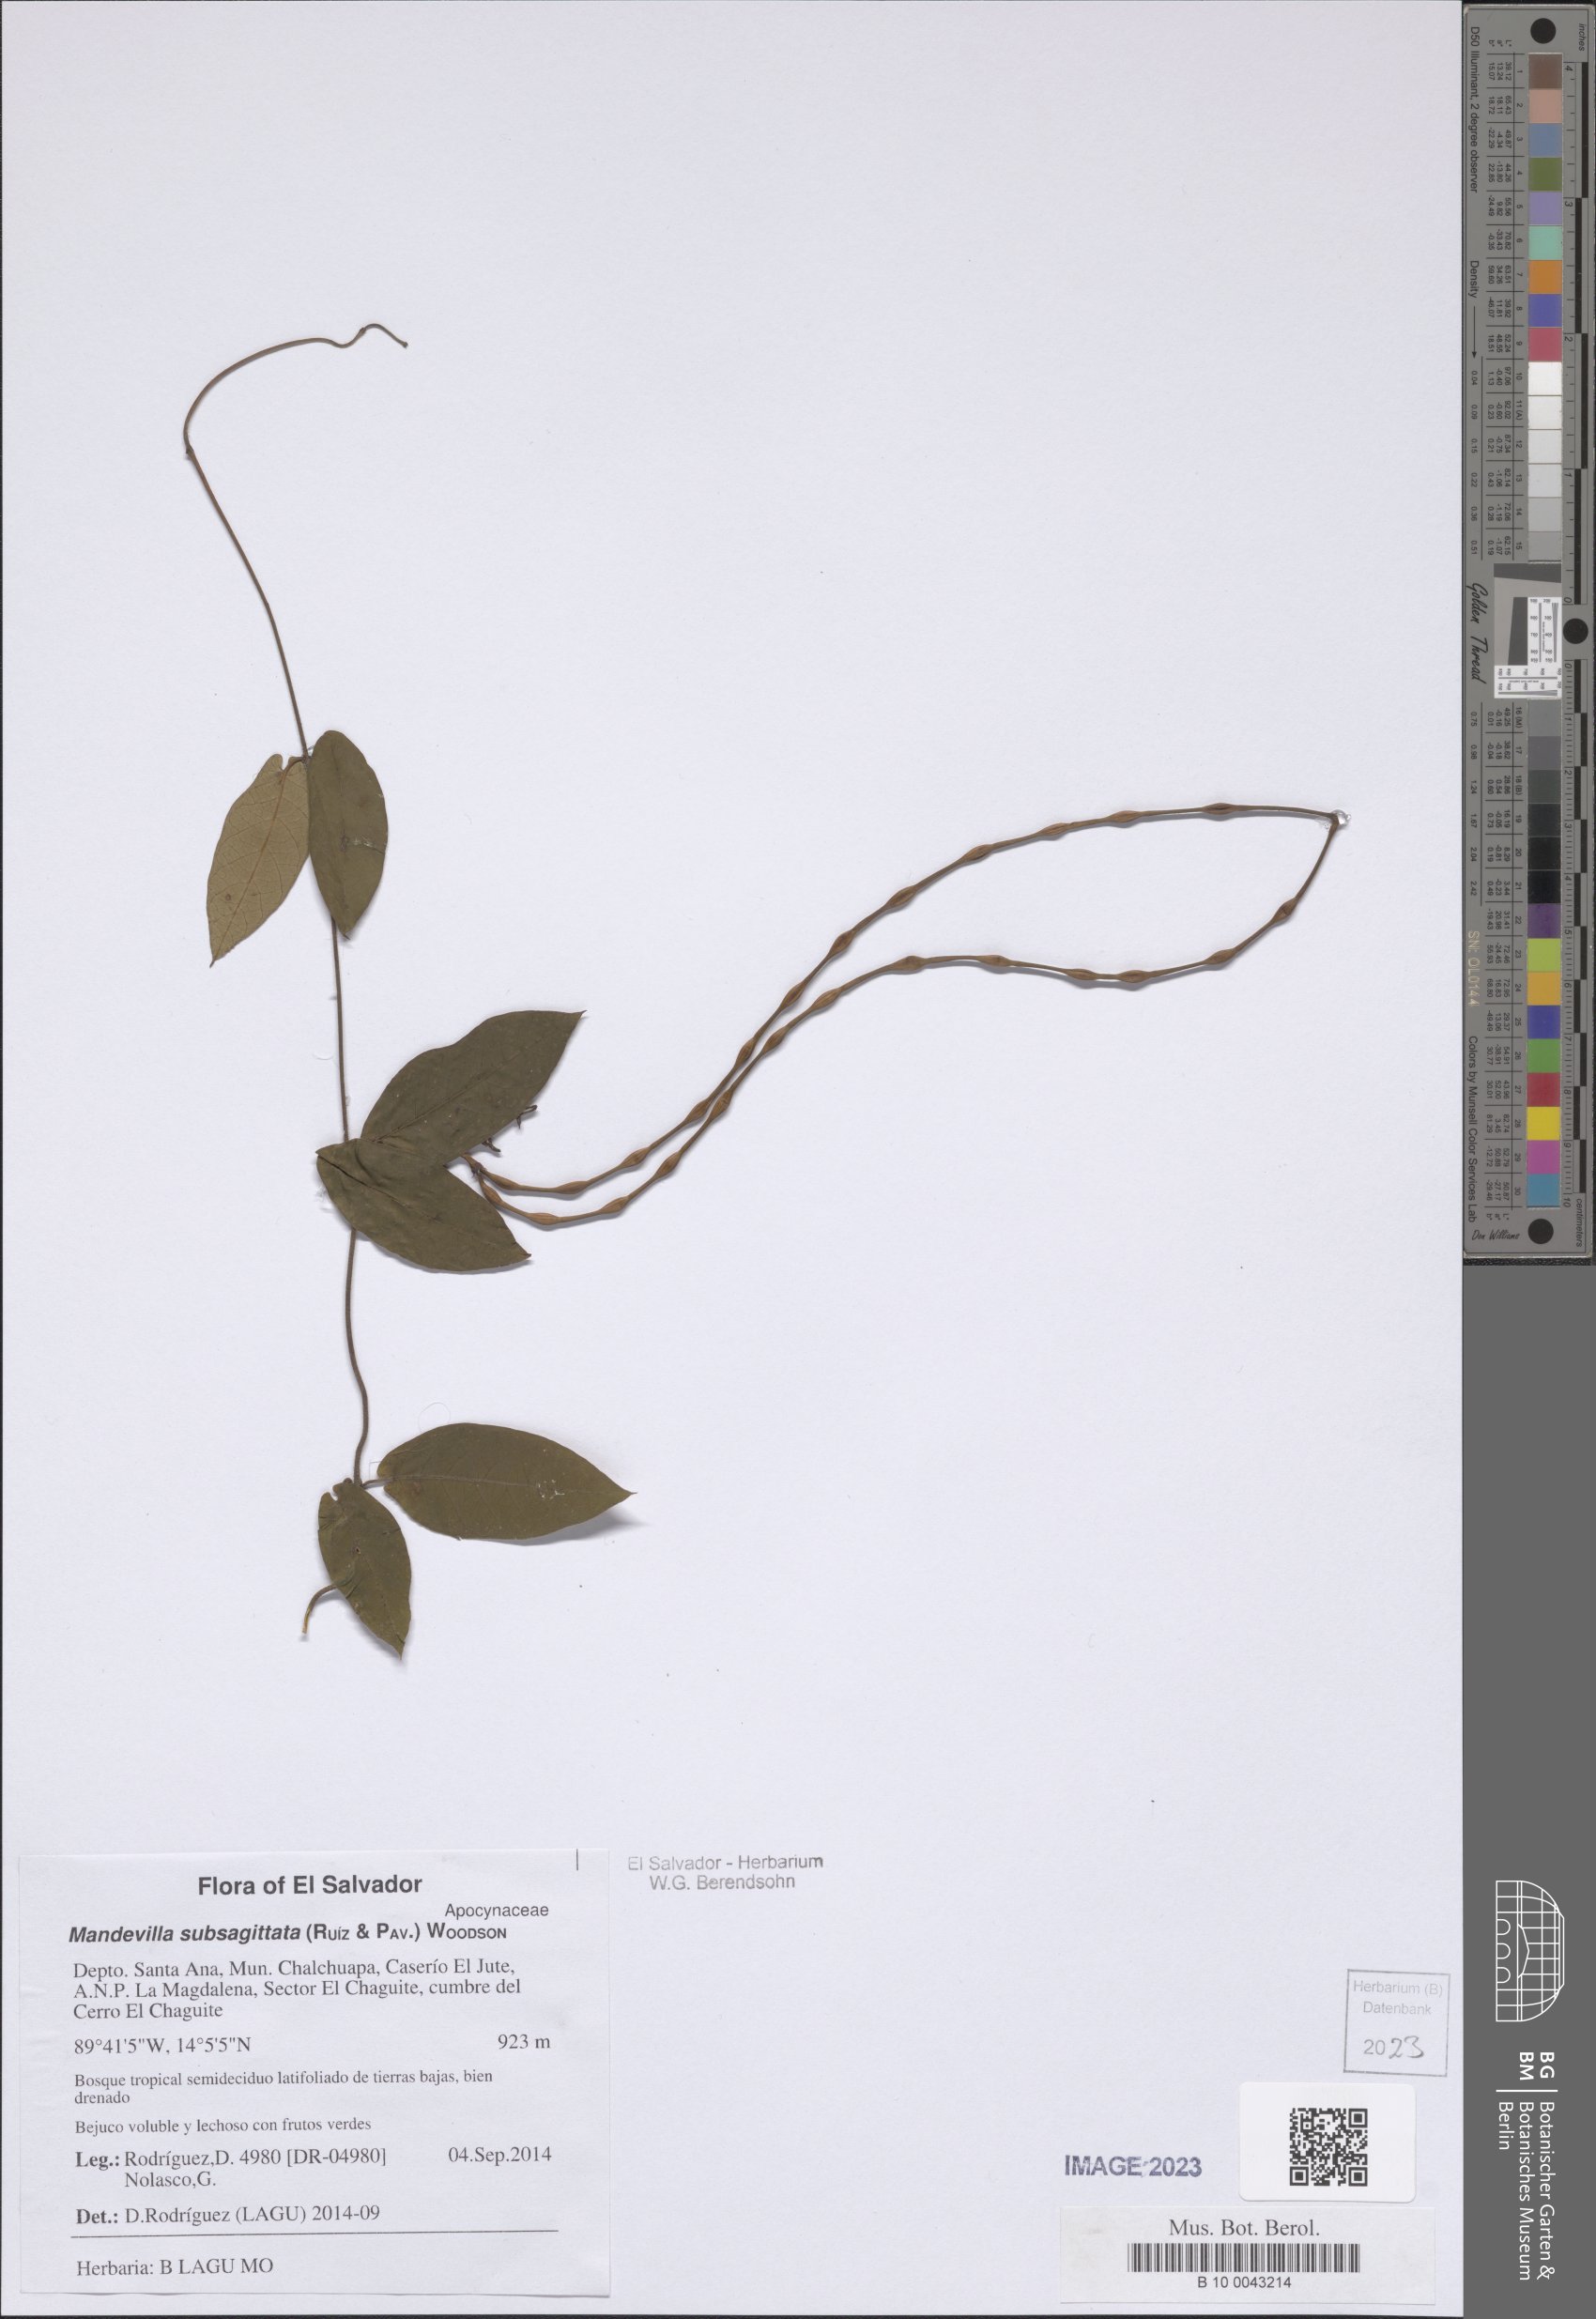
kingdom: Plantae
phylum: Tracheophyta
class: Magnoliopsida
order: Gentianales
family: Apocynaceae
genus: Mandevilla
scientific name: Mandevilla subsagittata
